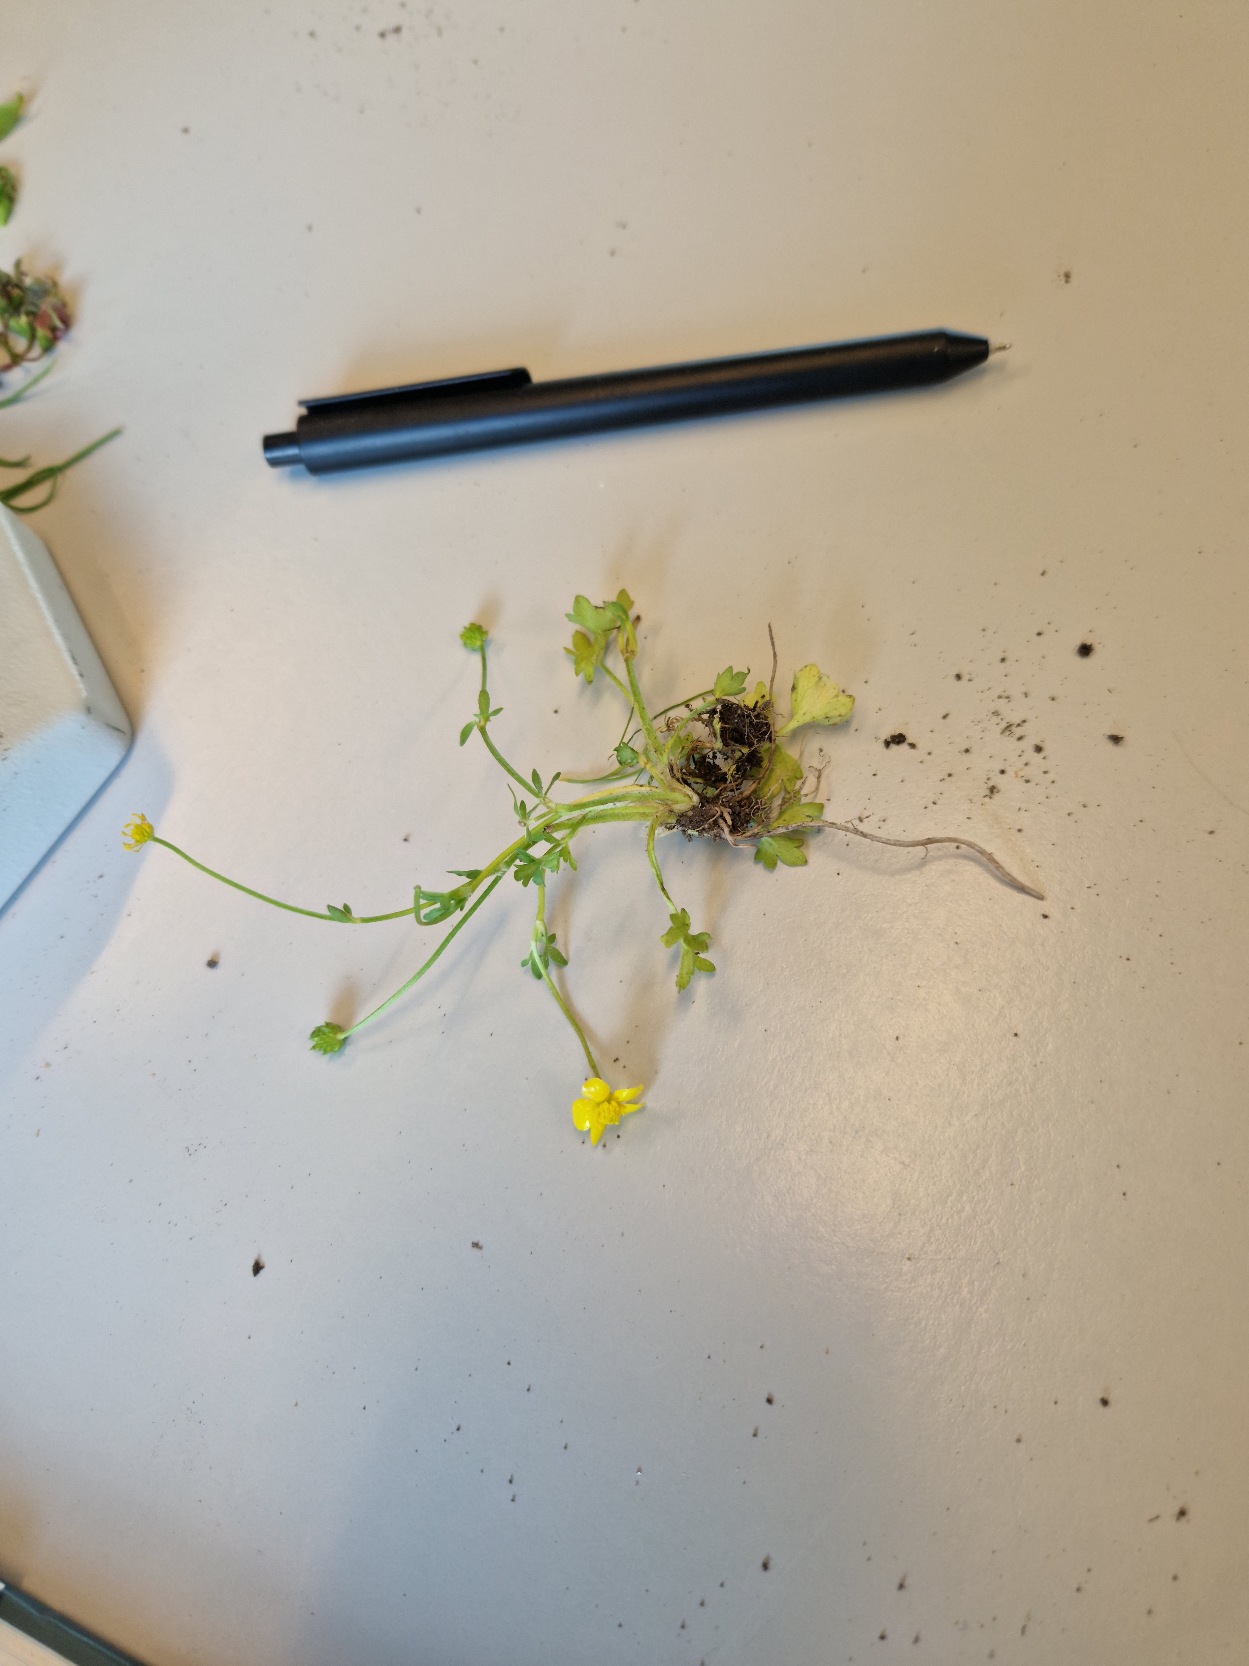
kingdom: Plantae
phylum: Tracheophyta
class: Magnoliopsida
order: Ranunculales
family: Ranunculaceae
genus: Ranunculus
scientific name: Ranunculus sardous
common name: Stivhåret ranunkel
